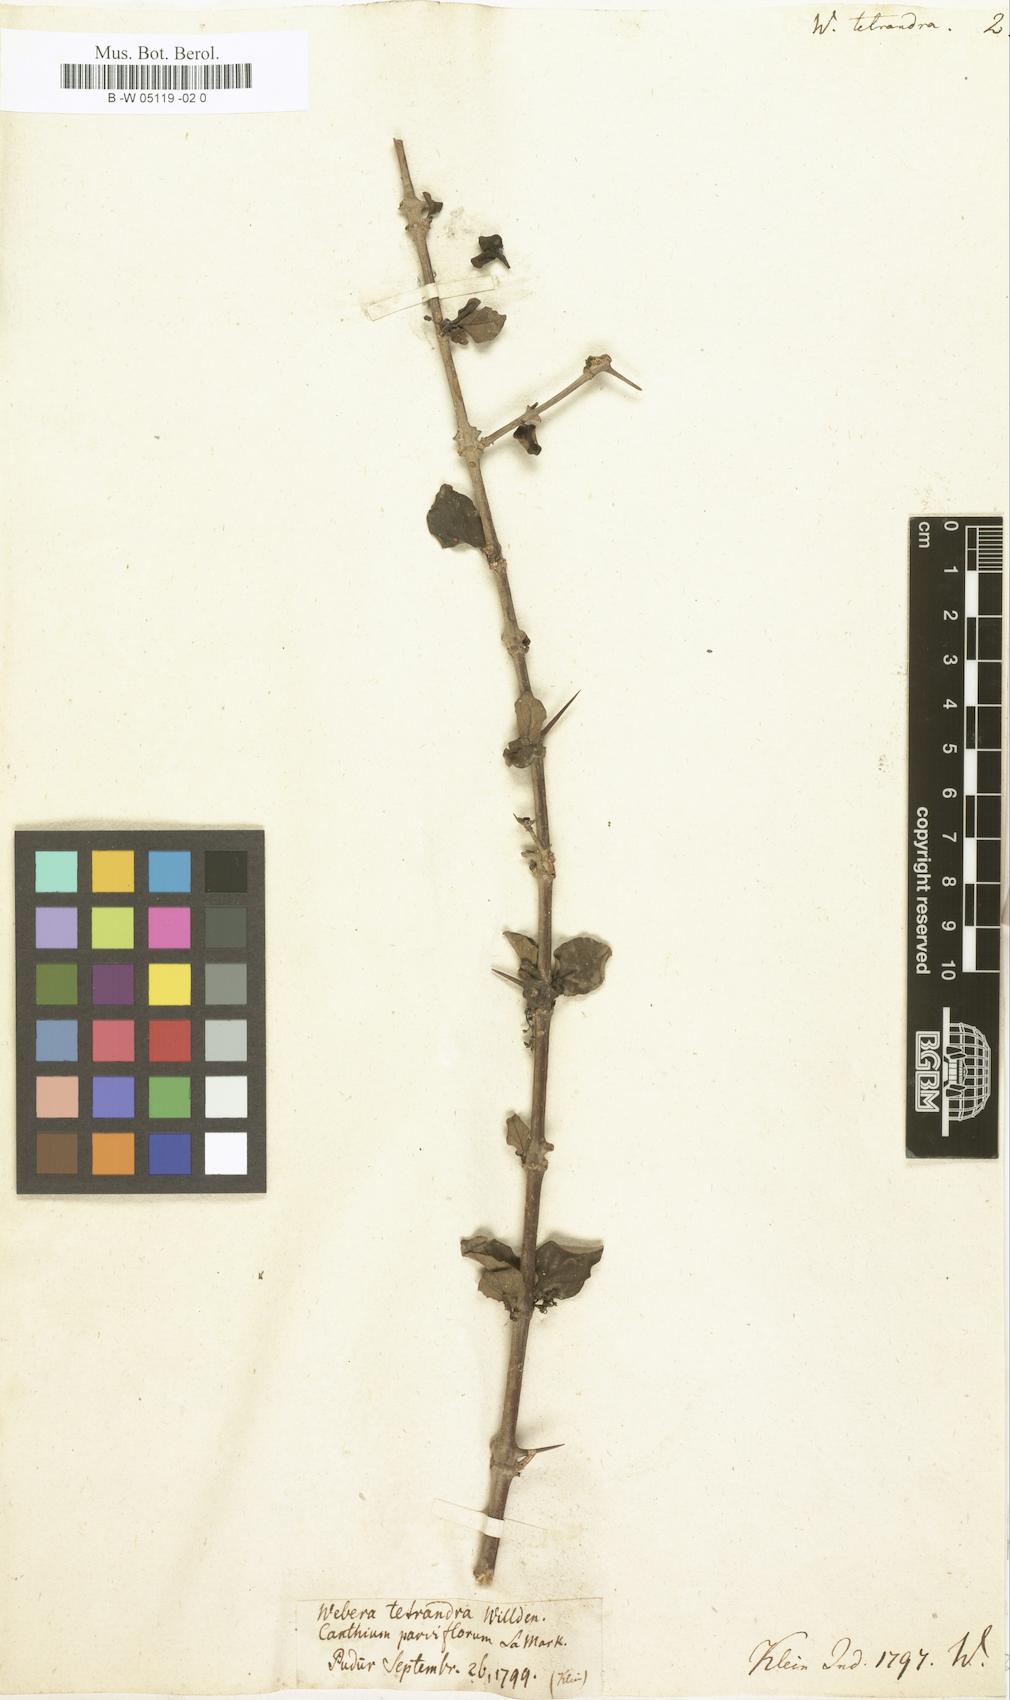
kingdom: Plantae
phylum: Tracheophyta
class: Magnoliopsida
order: Gentianales
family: Rubiaceae
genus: Canthium
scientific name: Canthium coromandelicum
